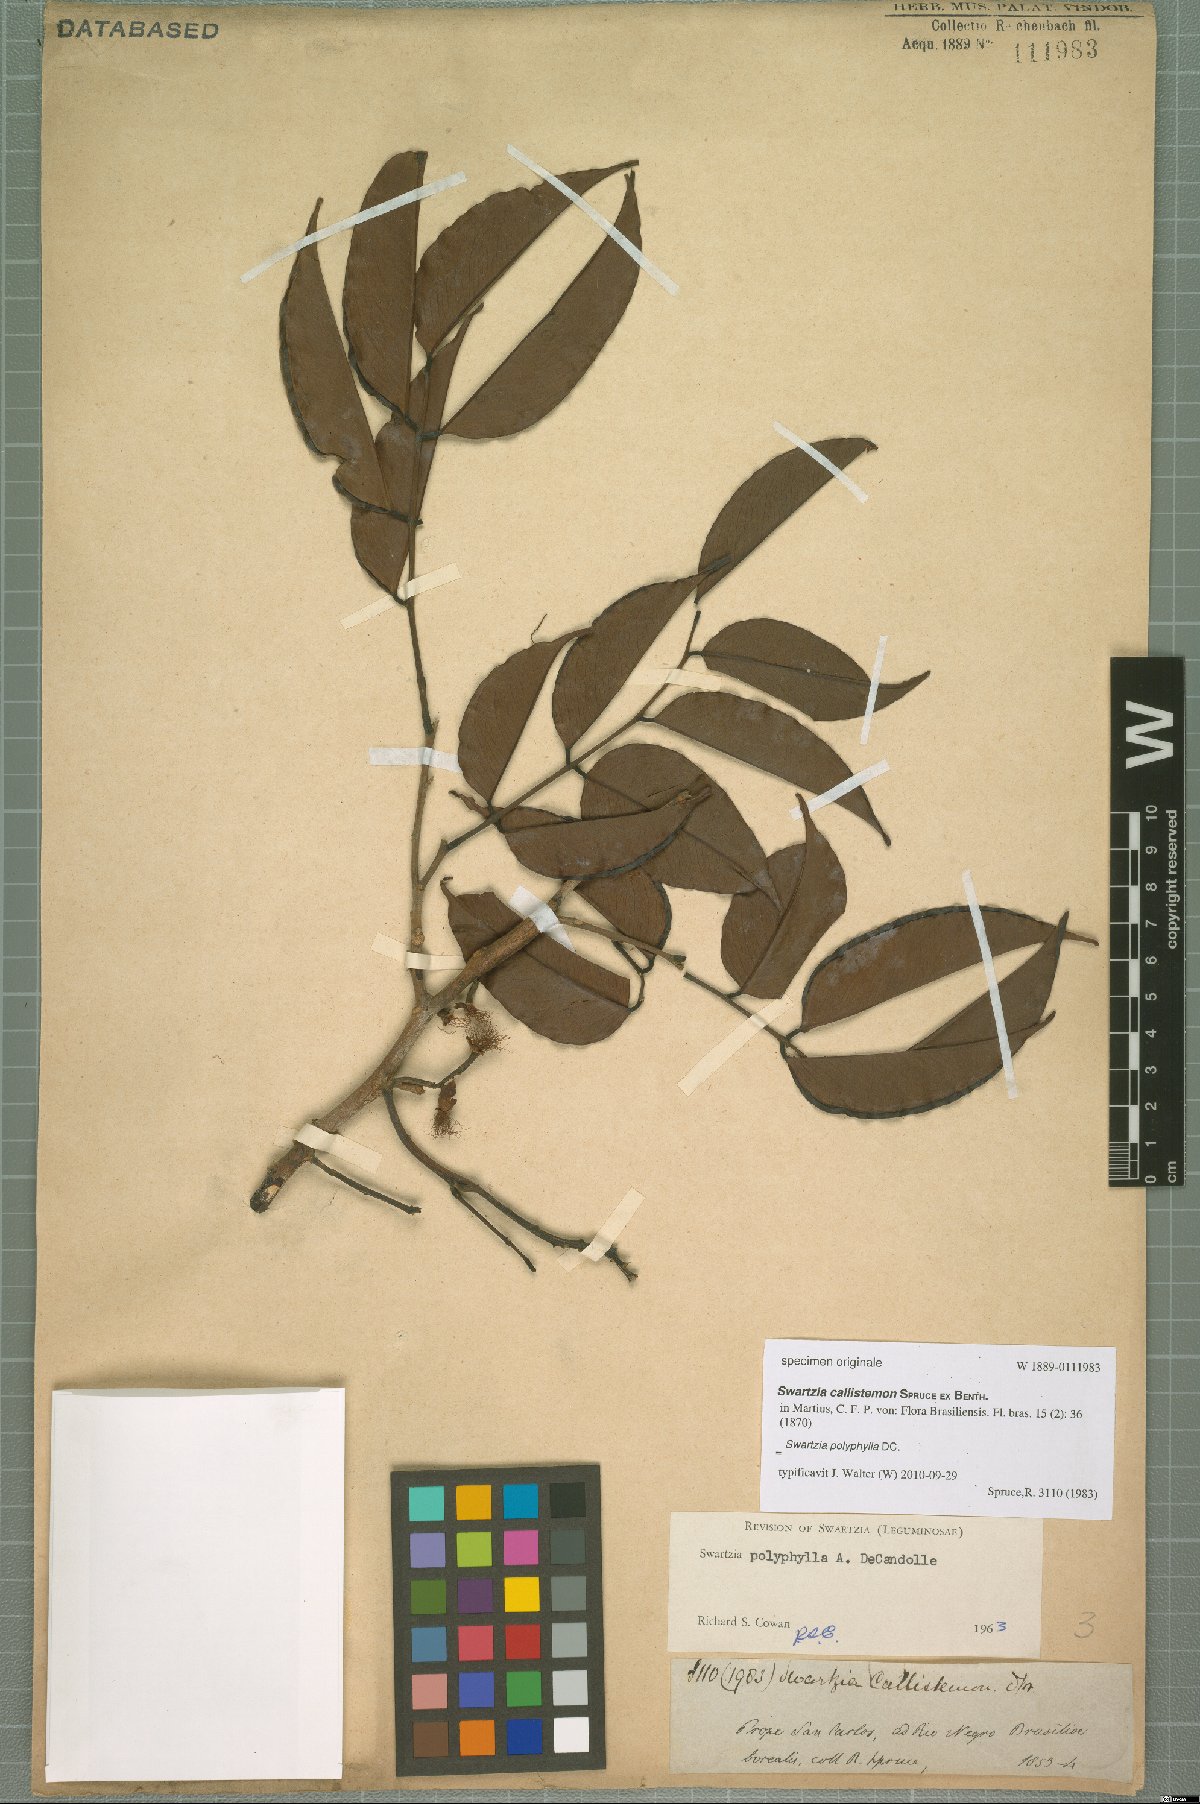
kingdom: Plantae
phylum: Tracheophyta
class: Magnoliopsida
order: Fabales
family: Fabaceae
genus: Swartzia
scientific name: Swartzia polyphylla
